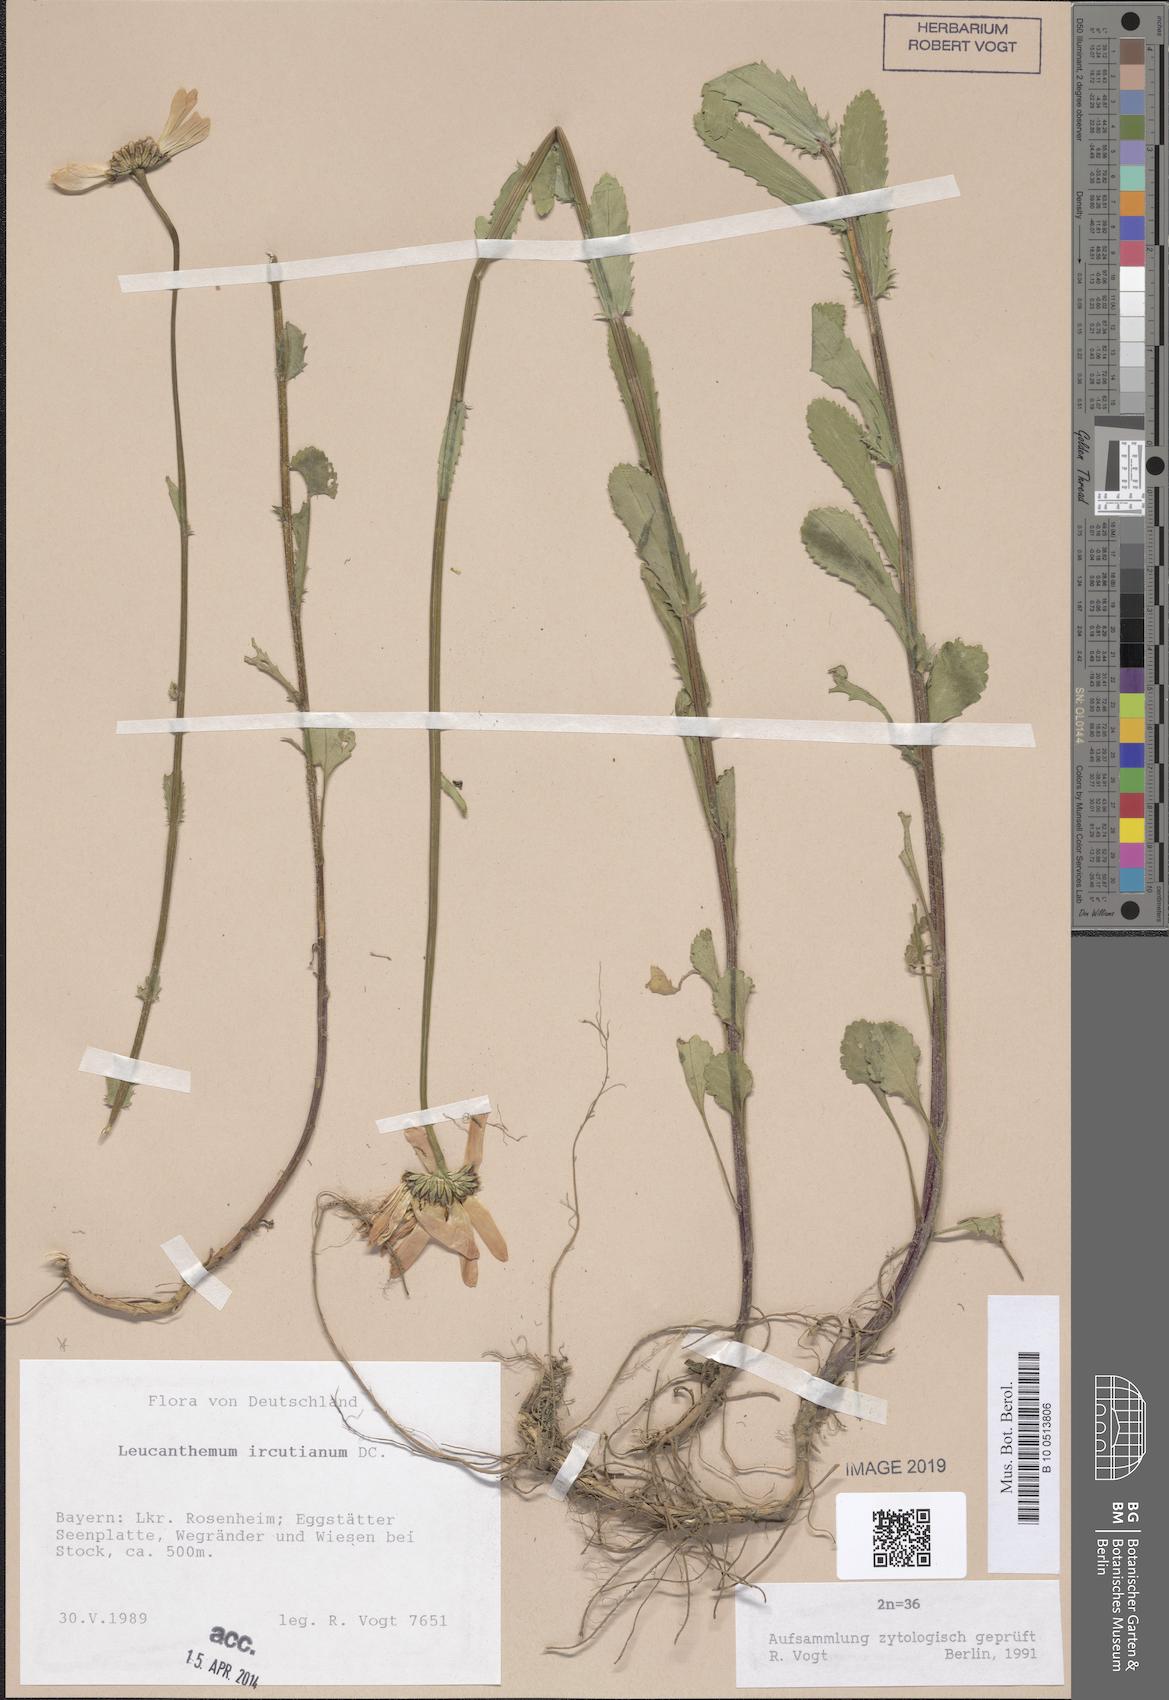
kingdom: Plantae
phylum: Tracheophyta
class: Magnoliopsida
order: Asterales
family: Asteraceae
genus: Leucanthemum
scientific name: Leucanthemum ircutianum
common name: Daisy
